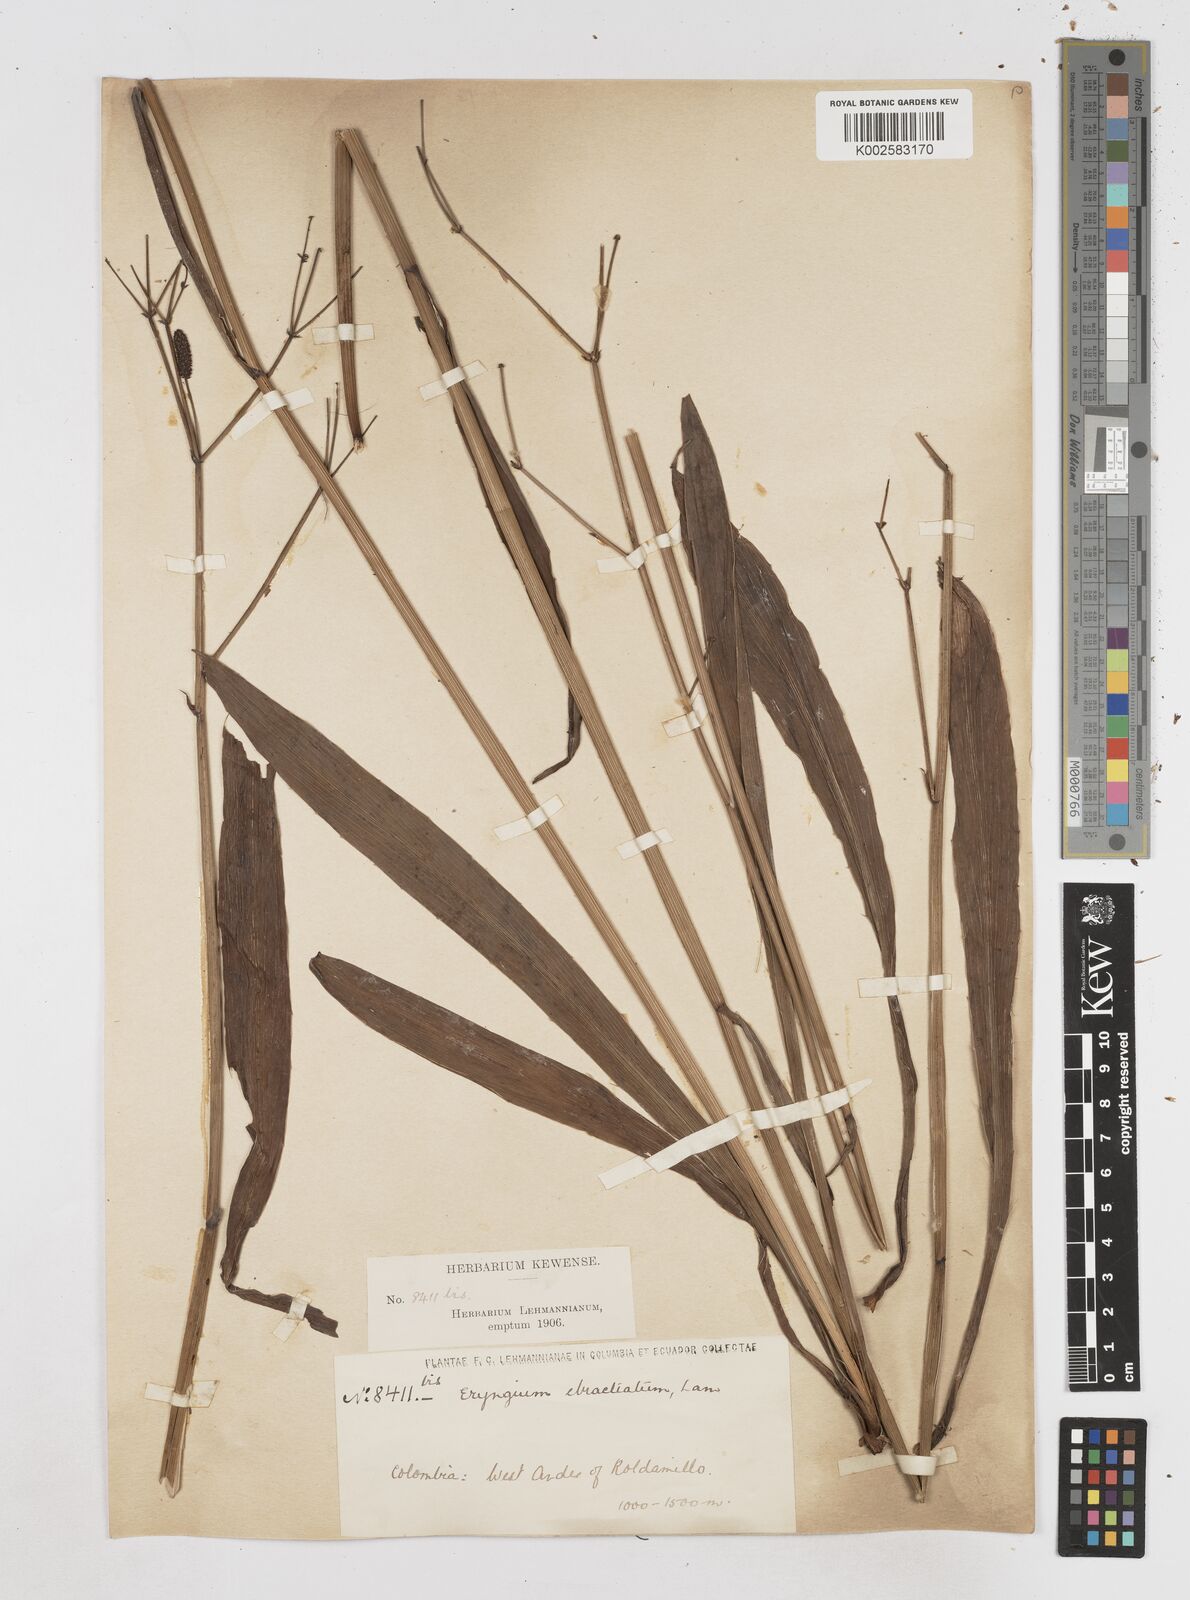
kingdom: Plantae
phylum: Tracheophyta
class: Magnoliopsida
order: Apiales
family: Apiaceae
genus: Eryngium
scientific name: Eryngium ebracteatum
